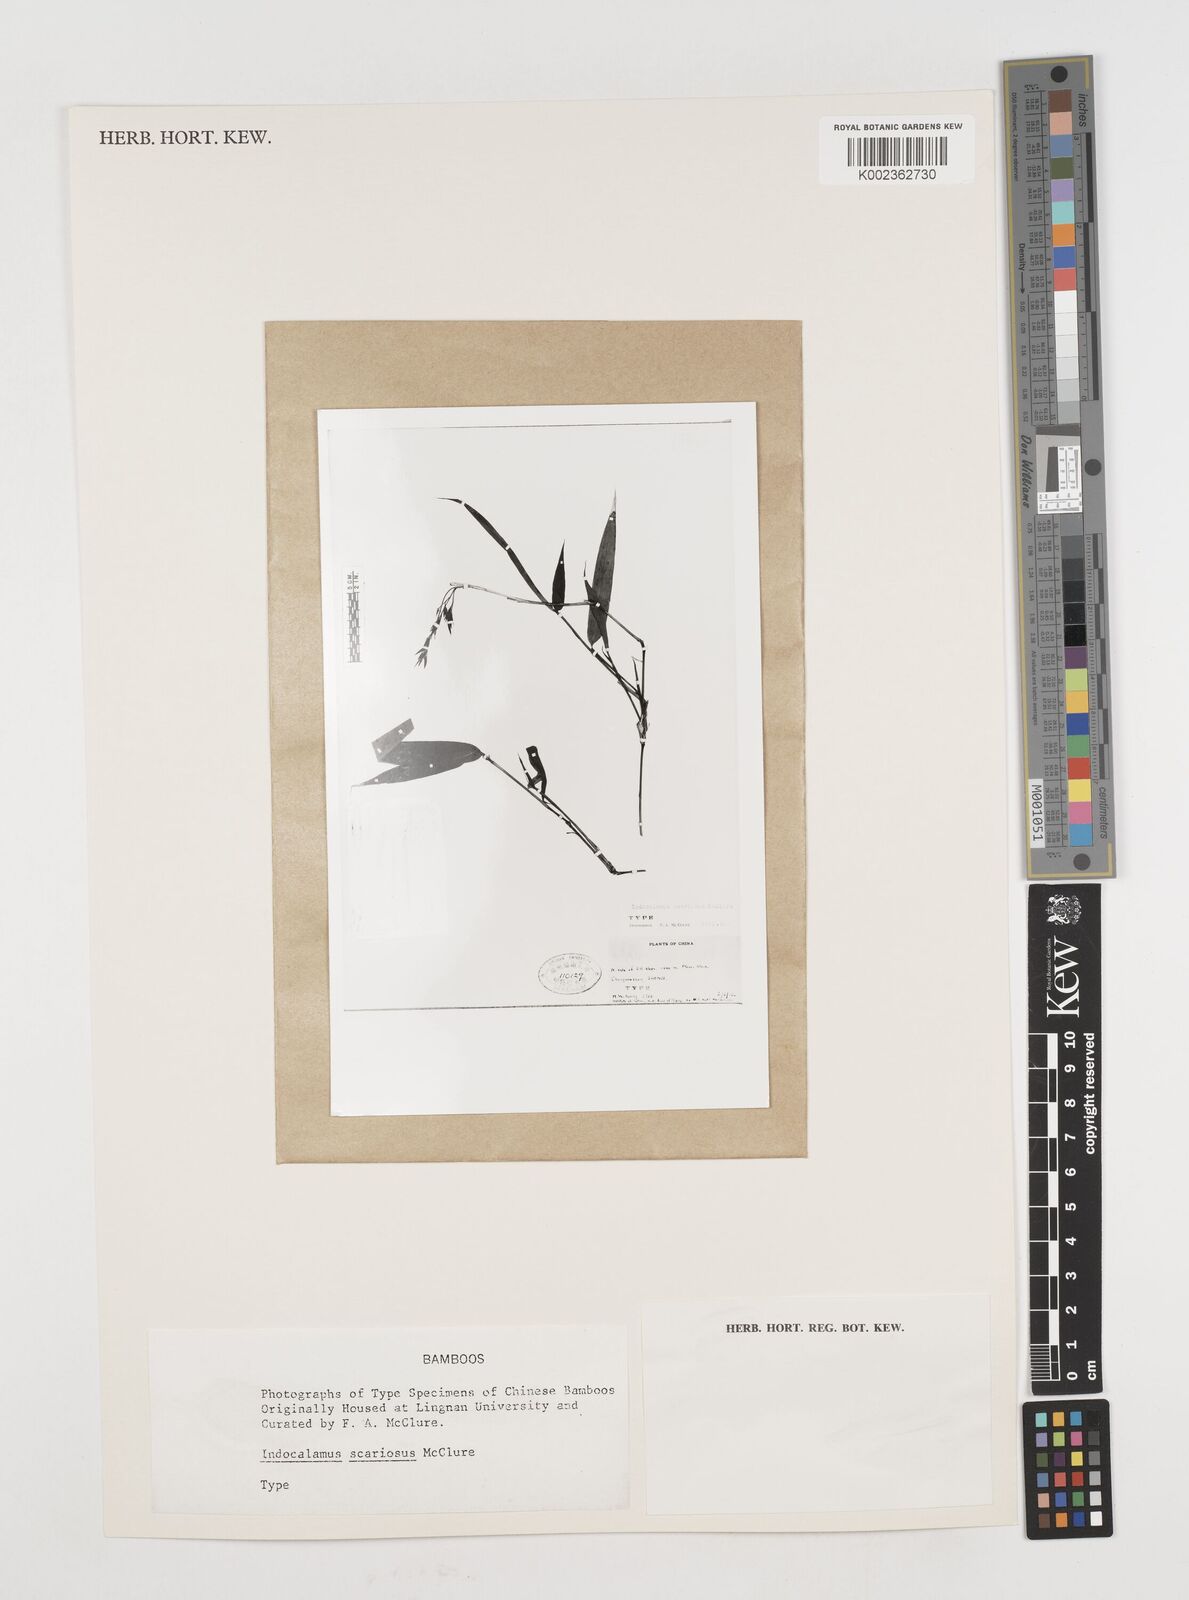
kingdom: Plantae
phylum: Tracheophyta
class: Liliopsida
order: Poales
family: Poaceae
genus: Bashania
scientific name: Bashania fargesii
